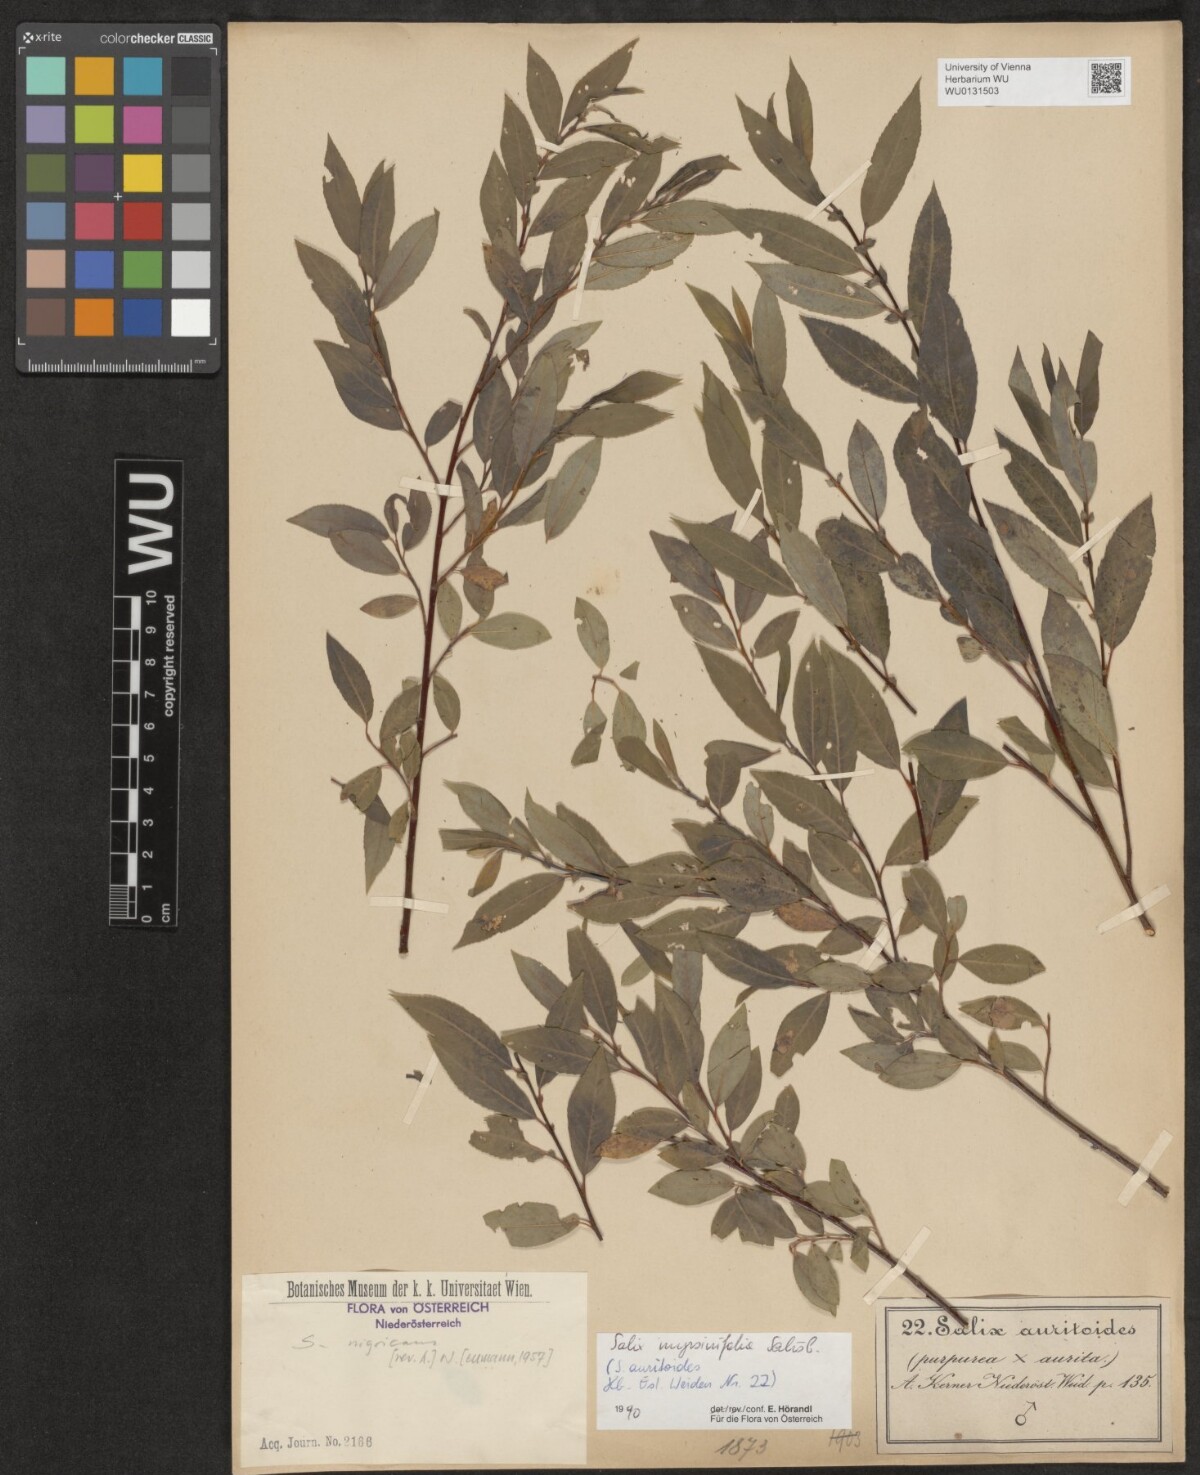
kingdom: Plantae
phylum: Tracheophyta
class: Magnoliopsida
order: Malpighiales
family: Salicaceae
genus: Salix
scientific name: Salix myrsinifolia
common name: Dark-leaved willow
